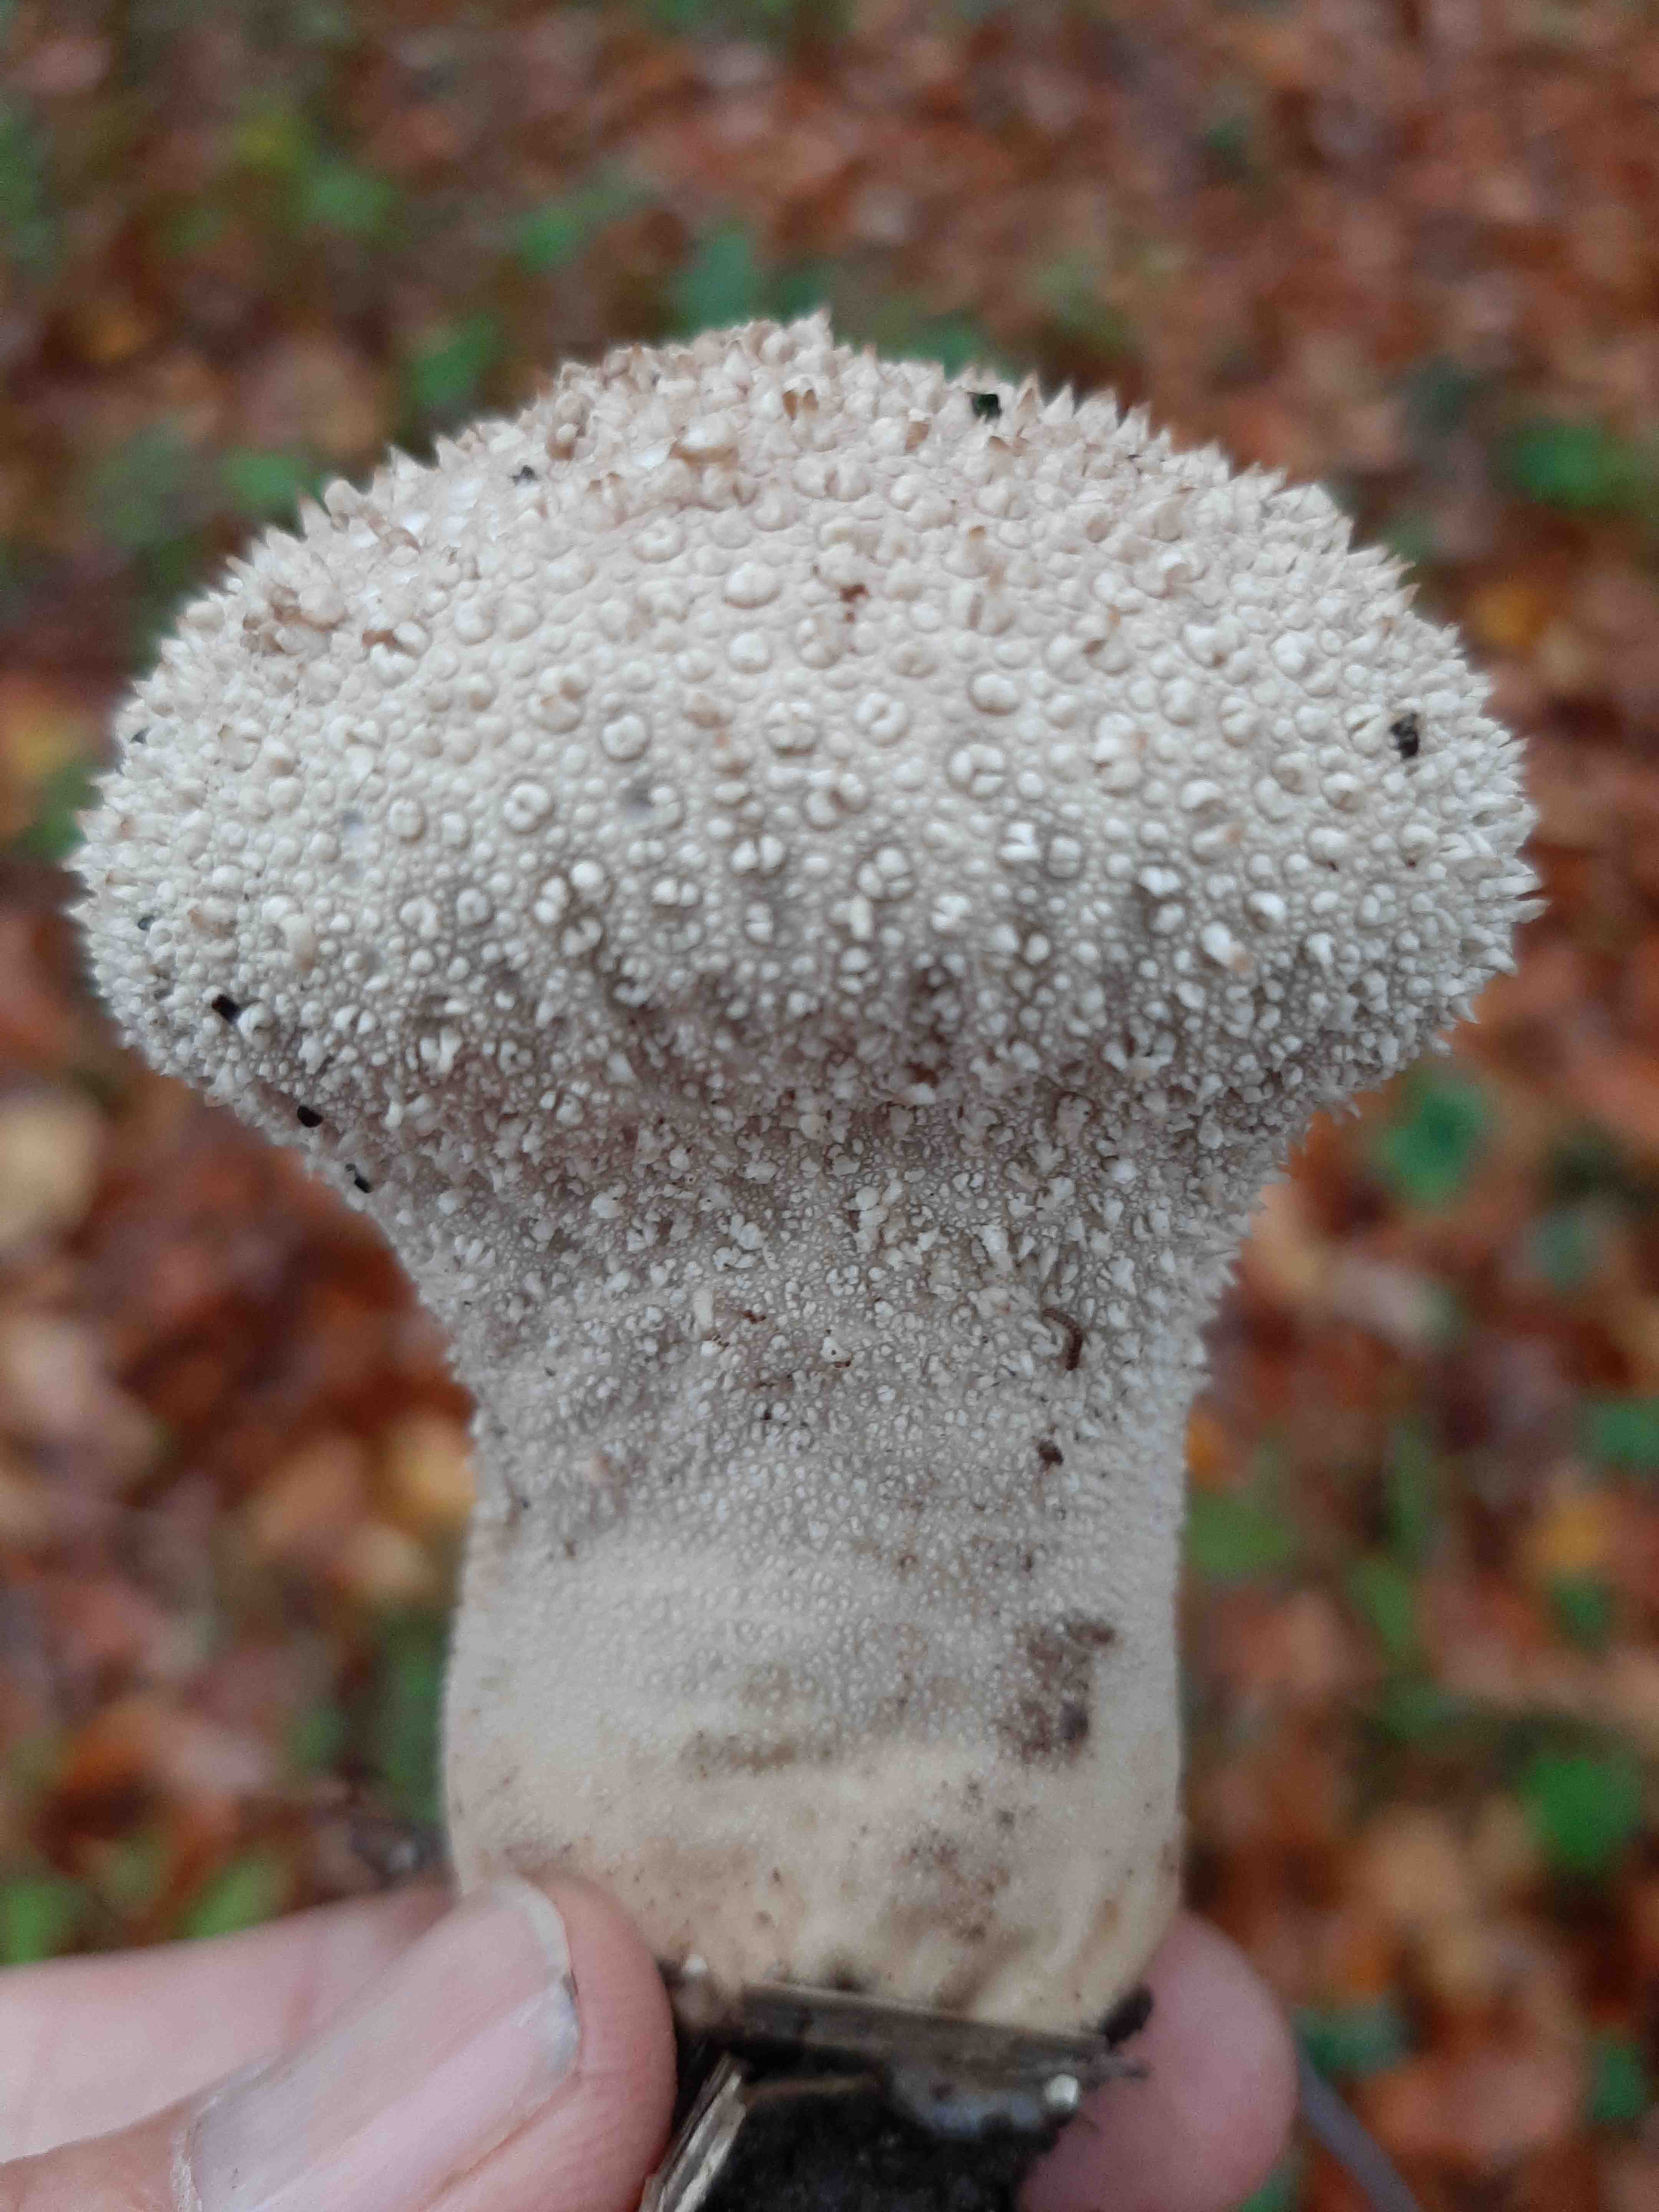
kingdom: Fungi
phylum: Basidiomycota
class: Agaricomycetes
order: Agaricales
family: Lycoperdaceae
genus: Lycoperdon
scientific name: Lycoperdon perlatum
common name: krystal-støvbold
